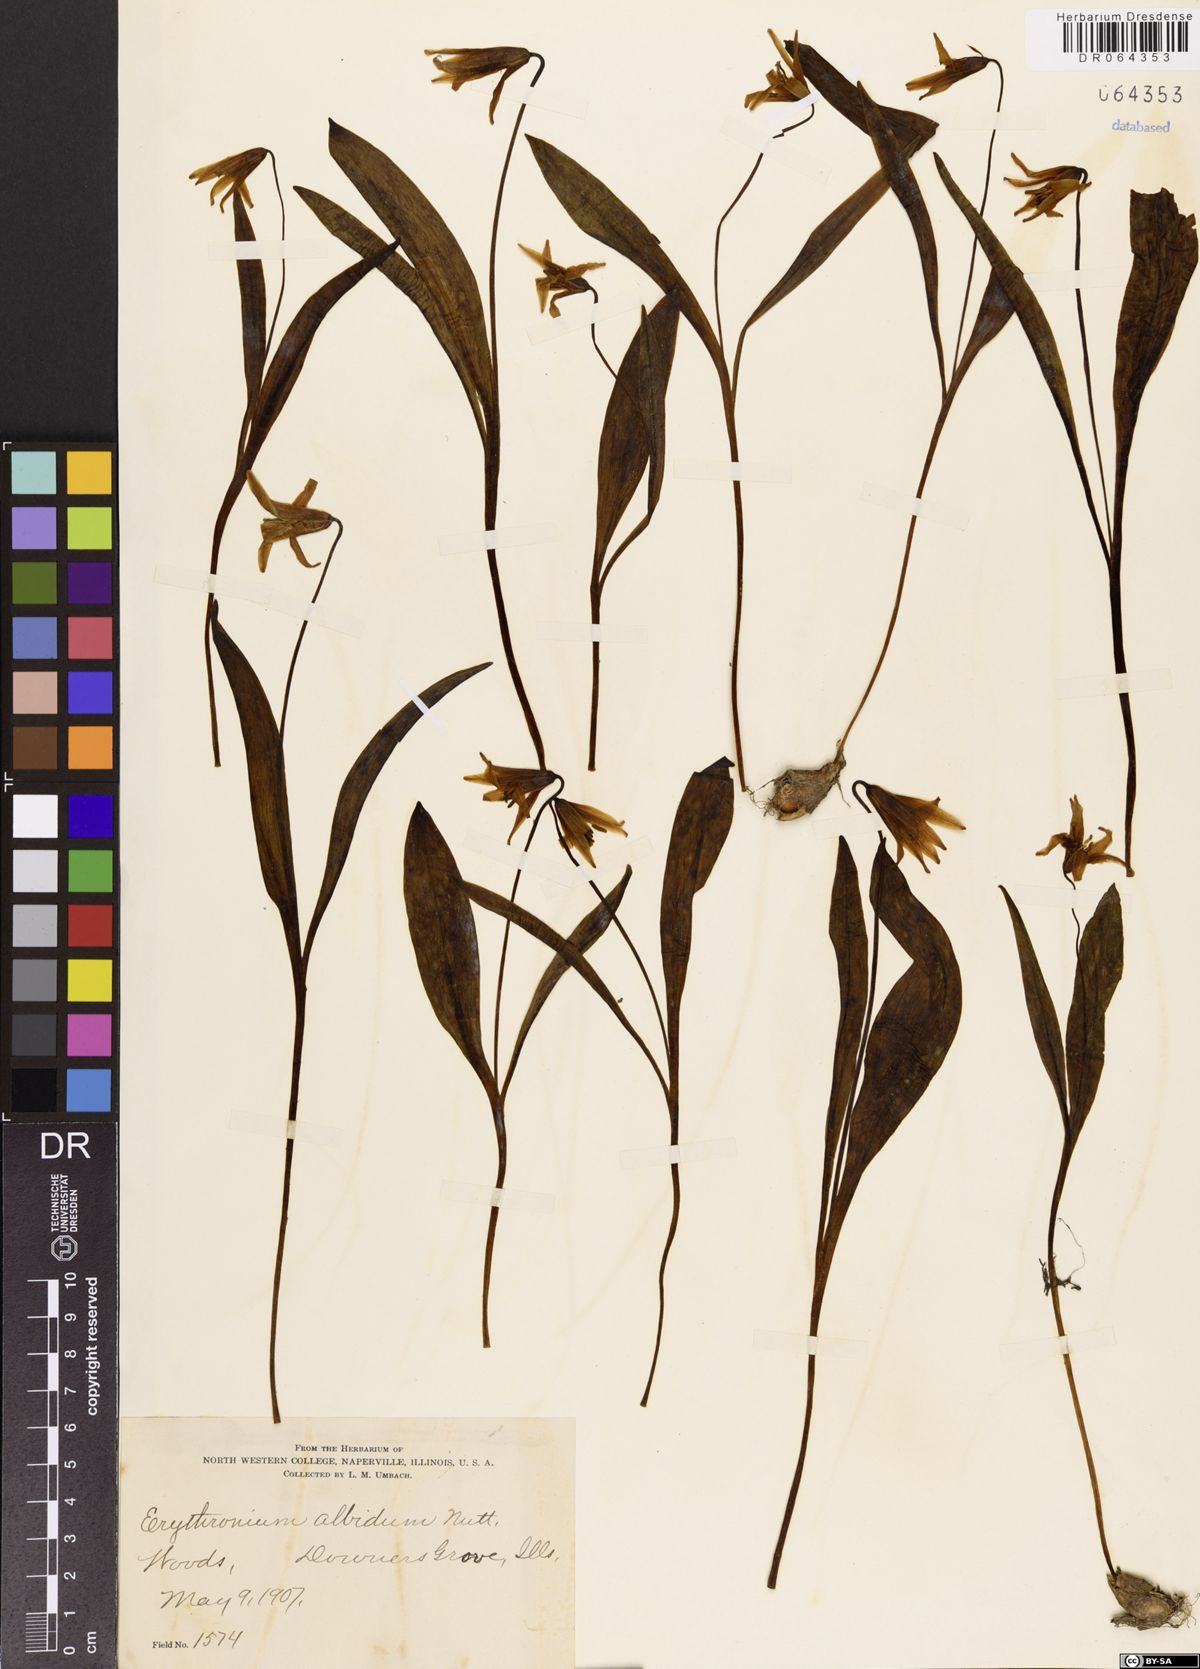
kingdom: Plantae
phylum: Tracheophyta
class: Liliopsida
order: Liliales
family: Liliaceae
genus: Erythronium
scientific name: Erythronium albidum
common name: White trout-lily
